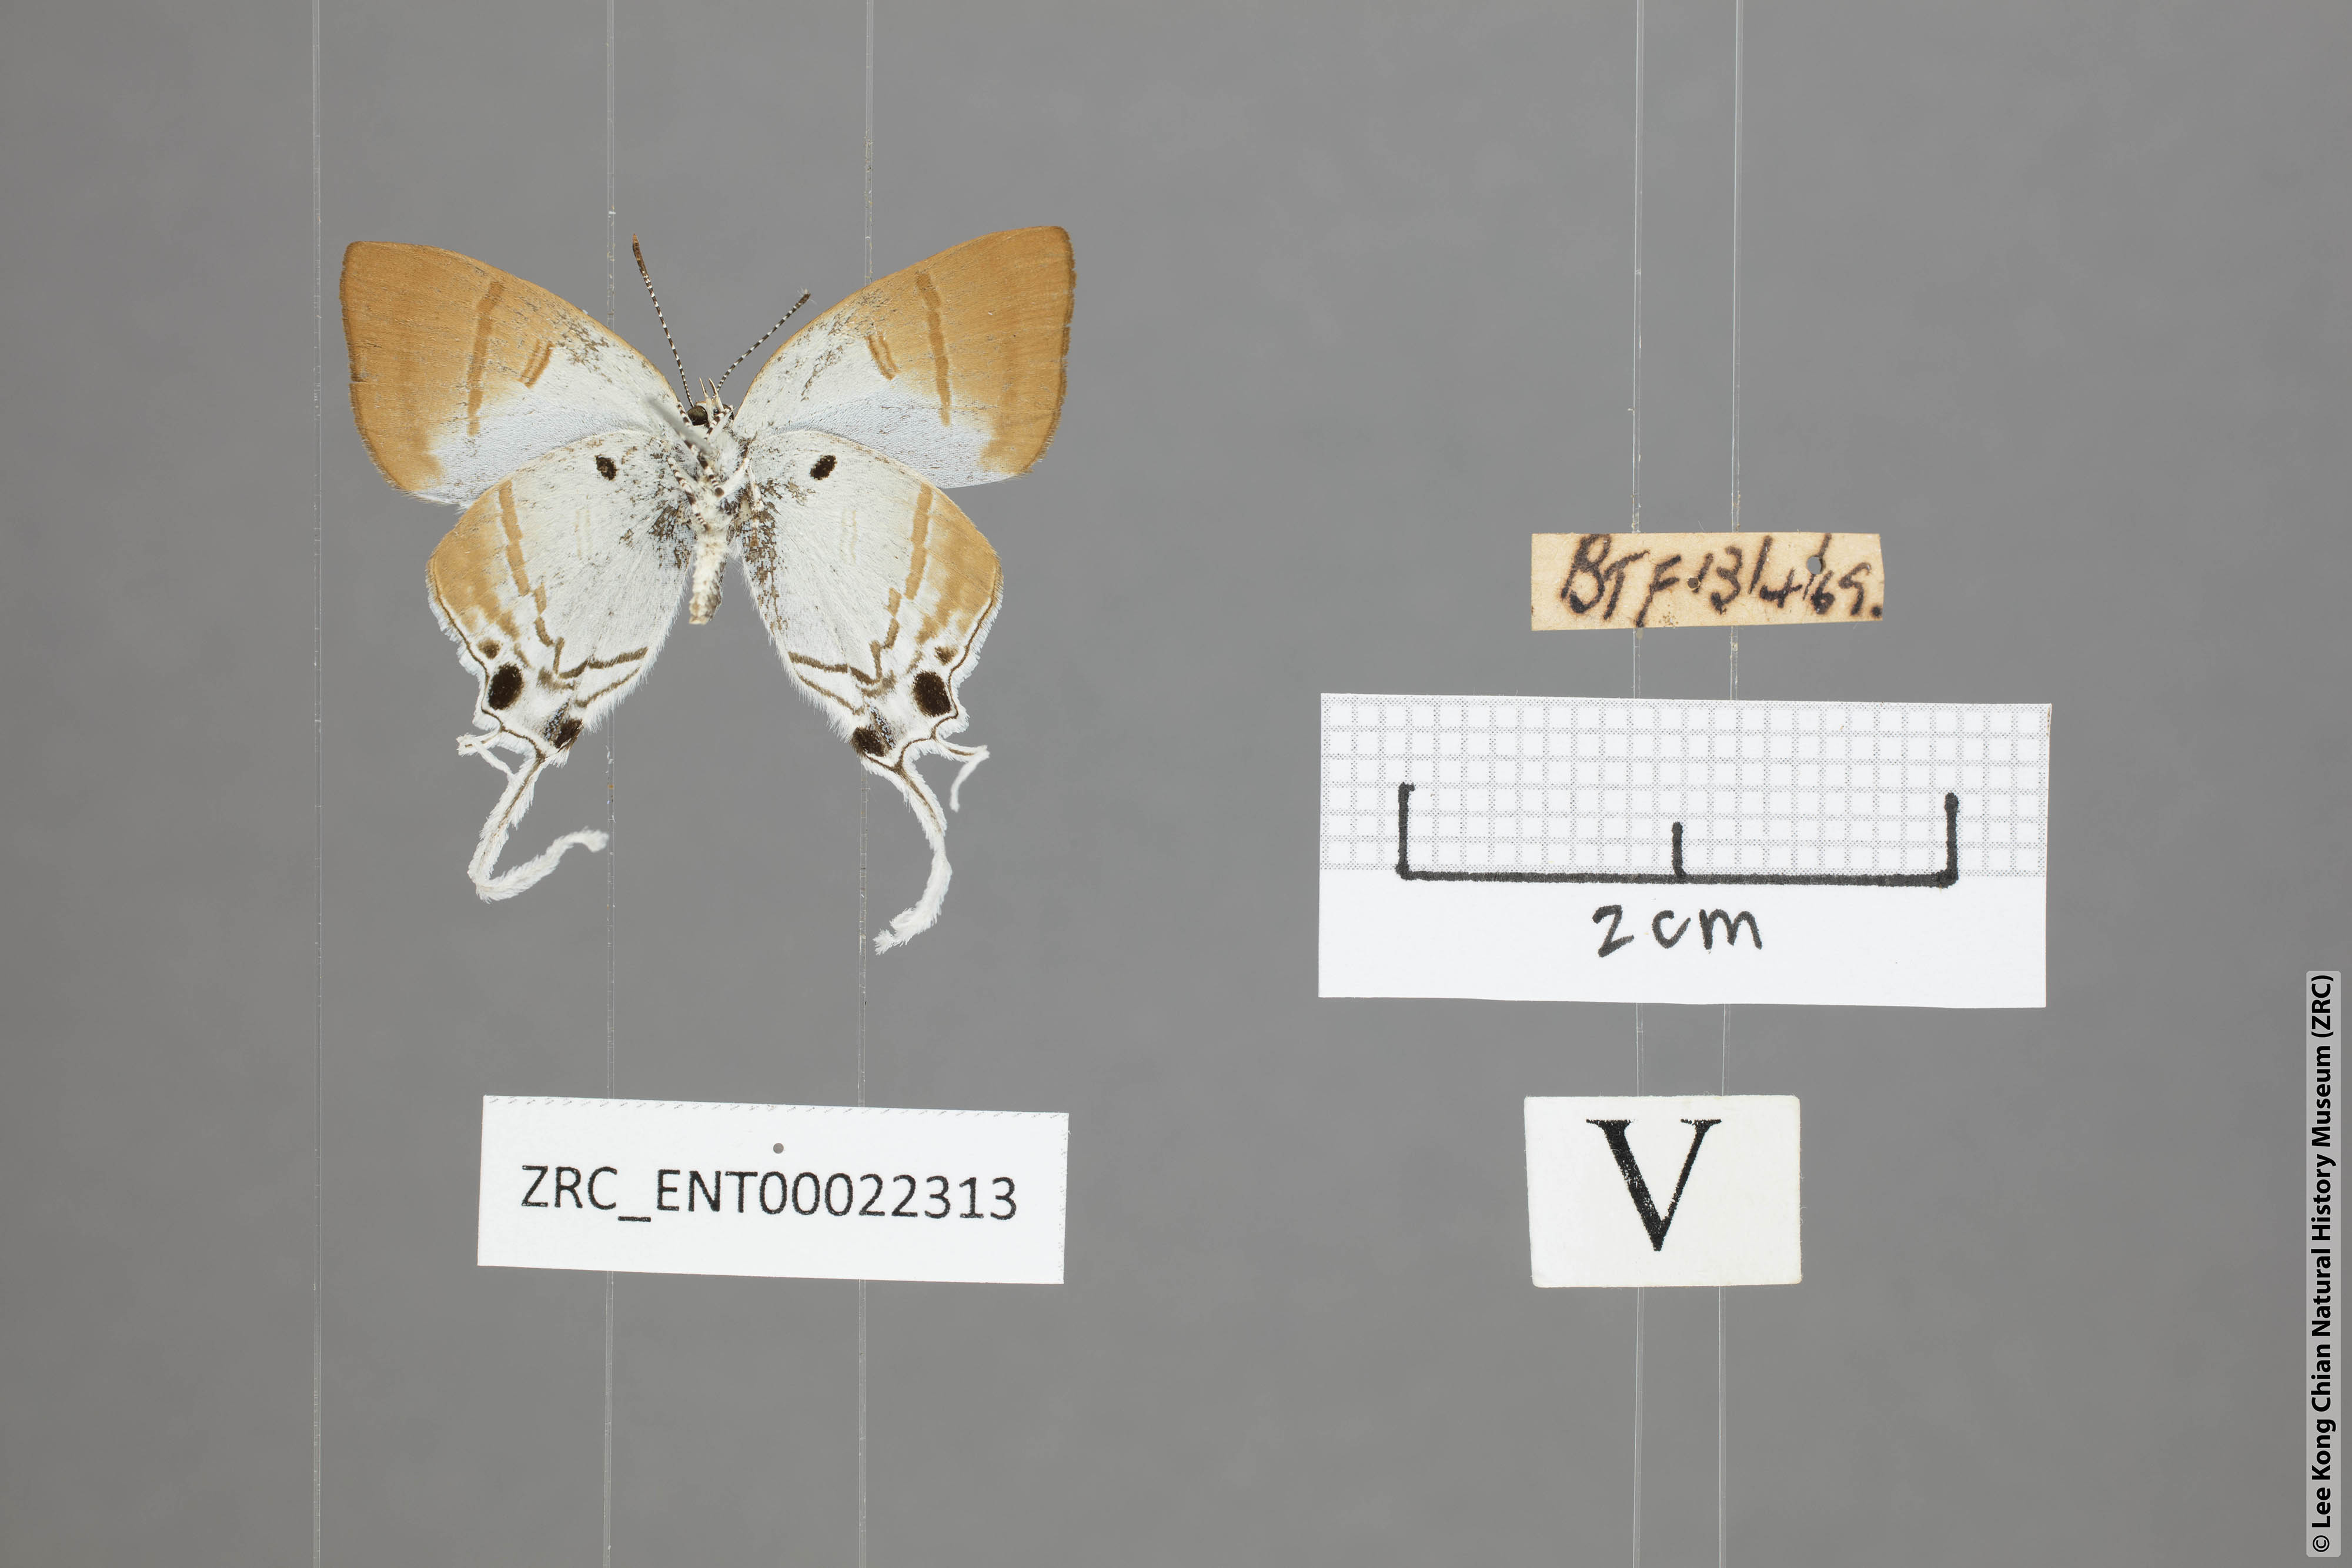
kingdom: Animalia
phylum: Arthropoda
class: Insecta
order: Lepidoptera
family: Lycaenidae
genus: Zeltus
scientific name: Zeltus amasa
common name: Fluffy tit
